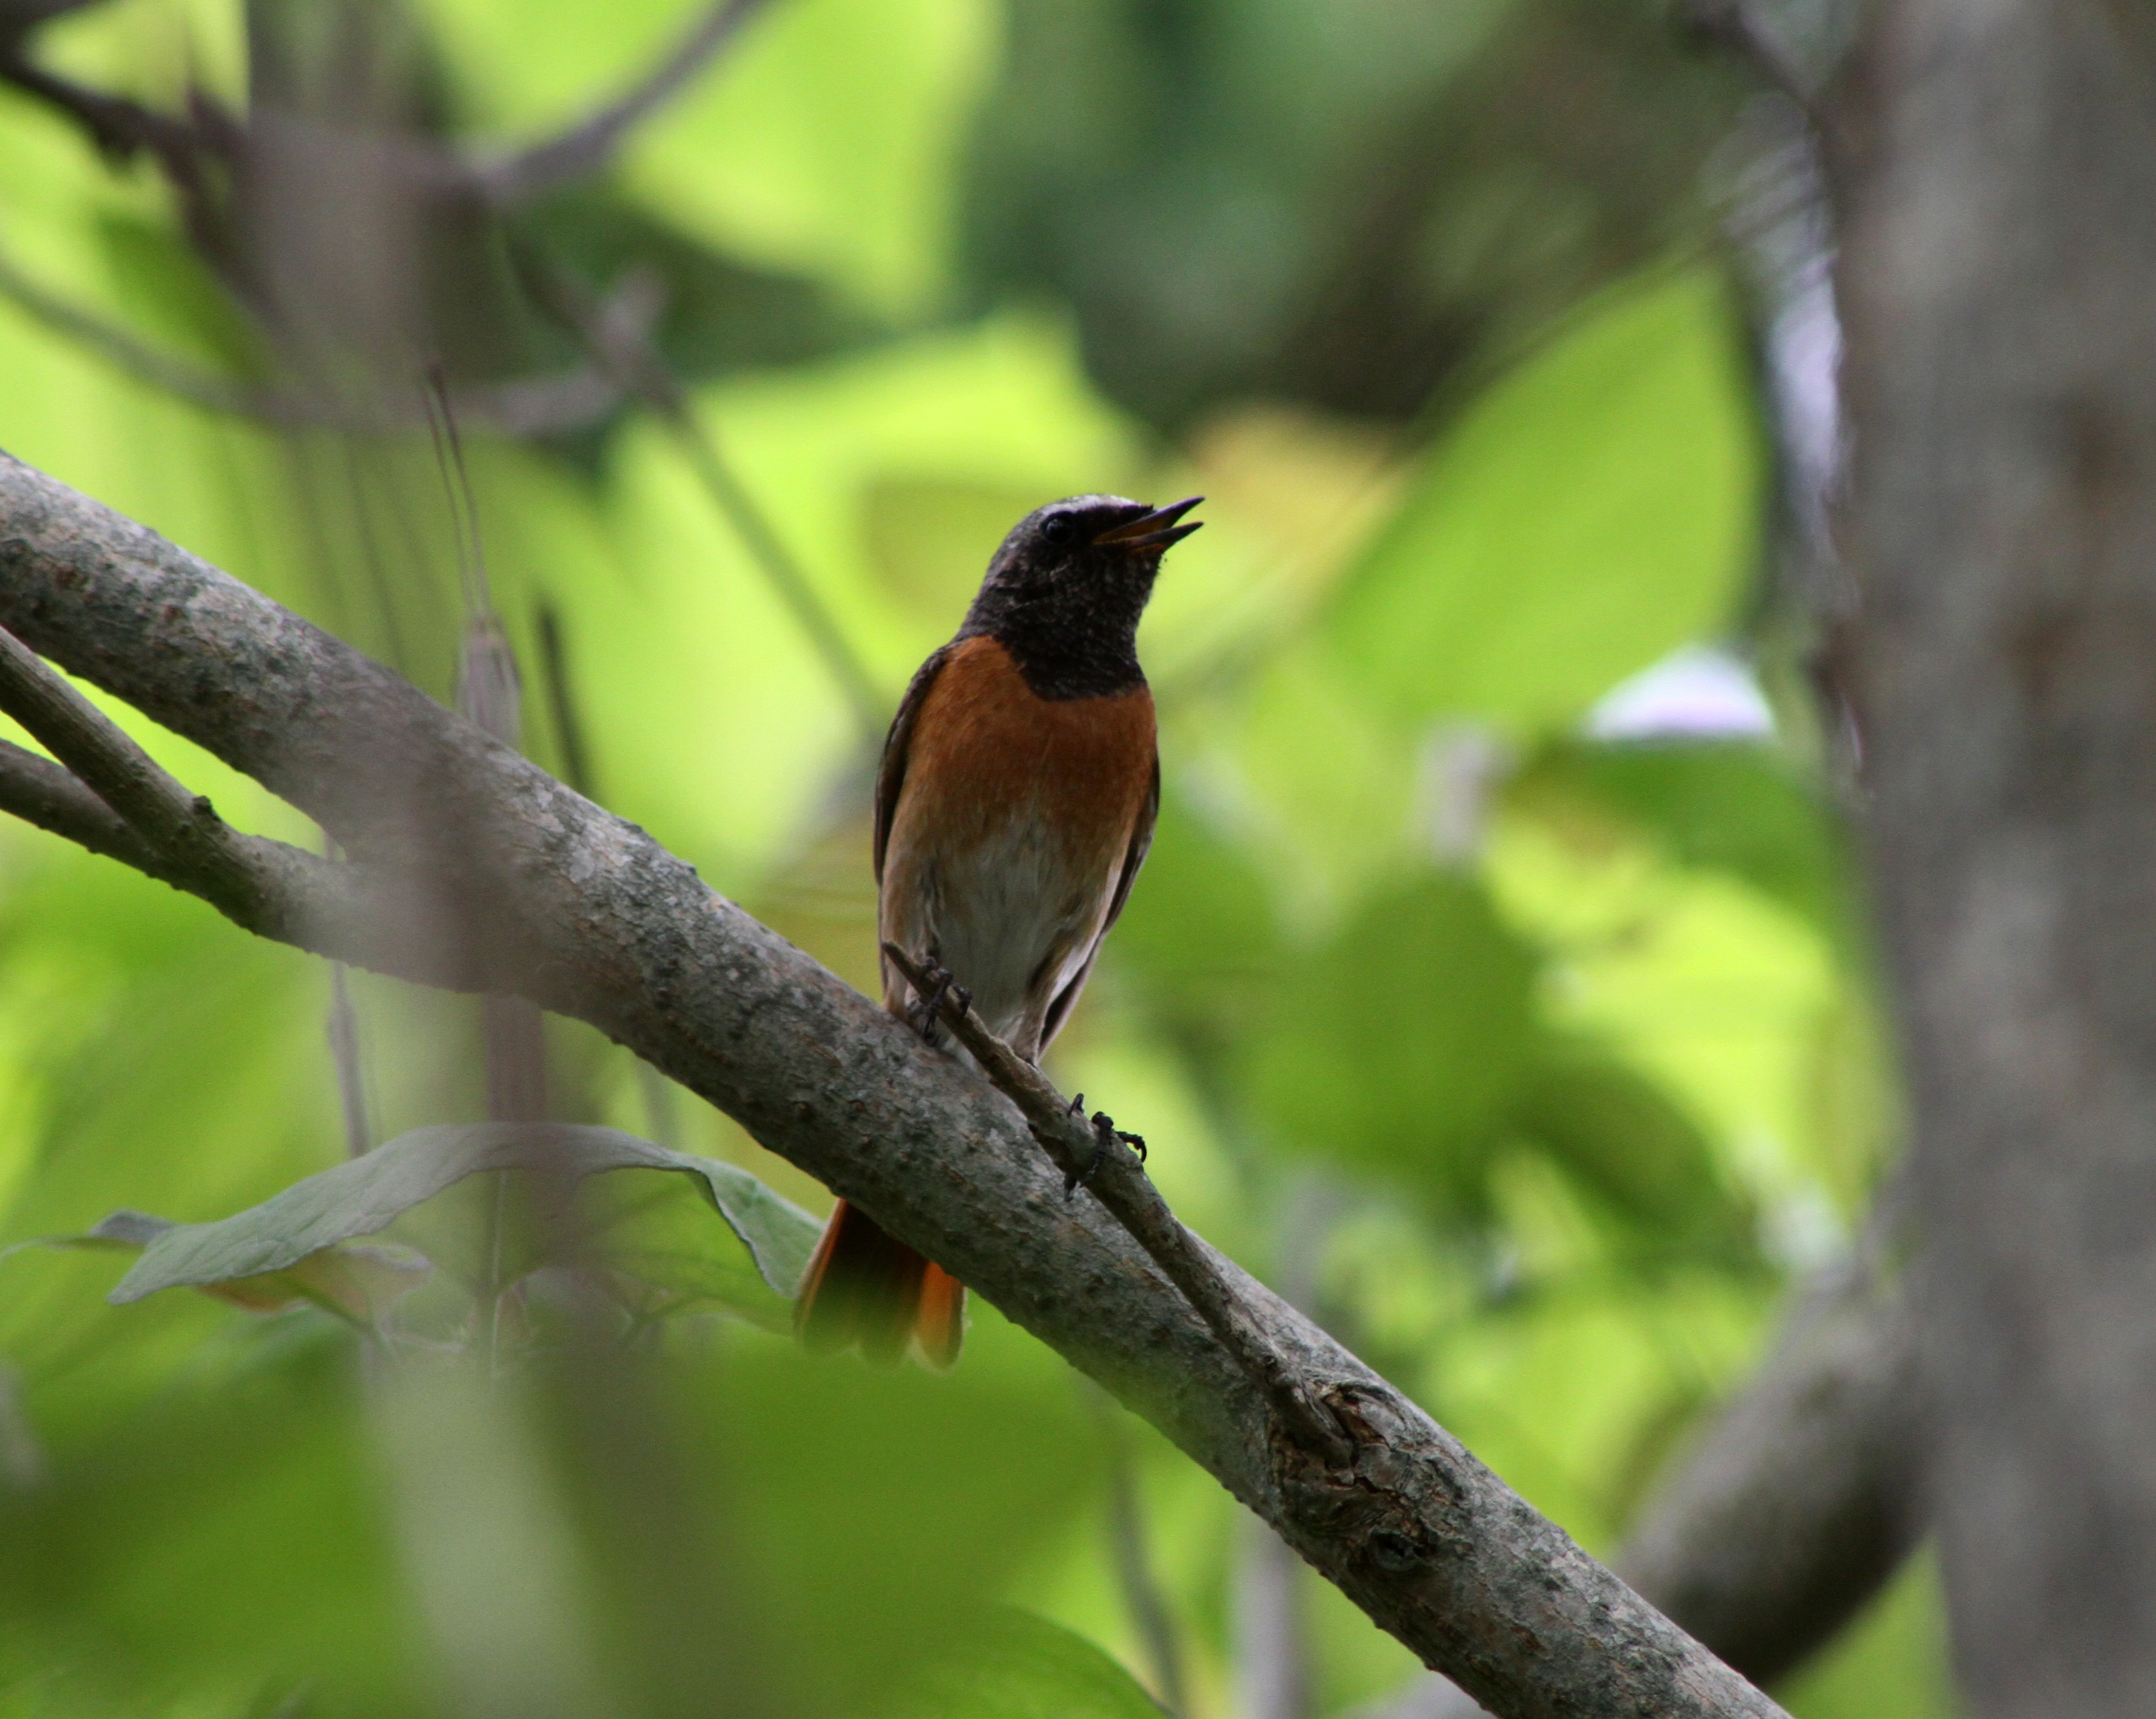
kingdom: Animalia
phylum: Chordata
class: Aves
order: Passeriformes
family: Muscicapidae
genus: Phoenicurus
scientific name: Phoenicurus phoenicurus
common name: Rødstjert
